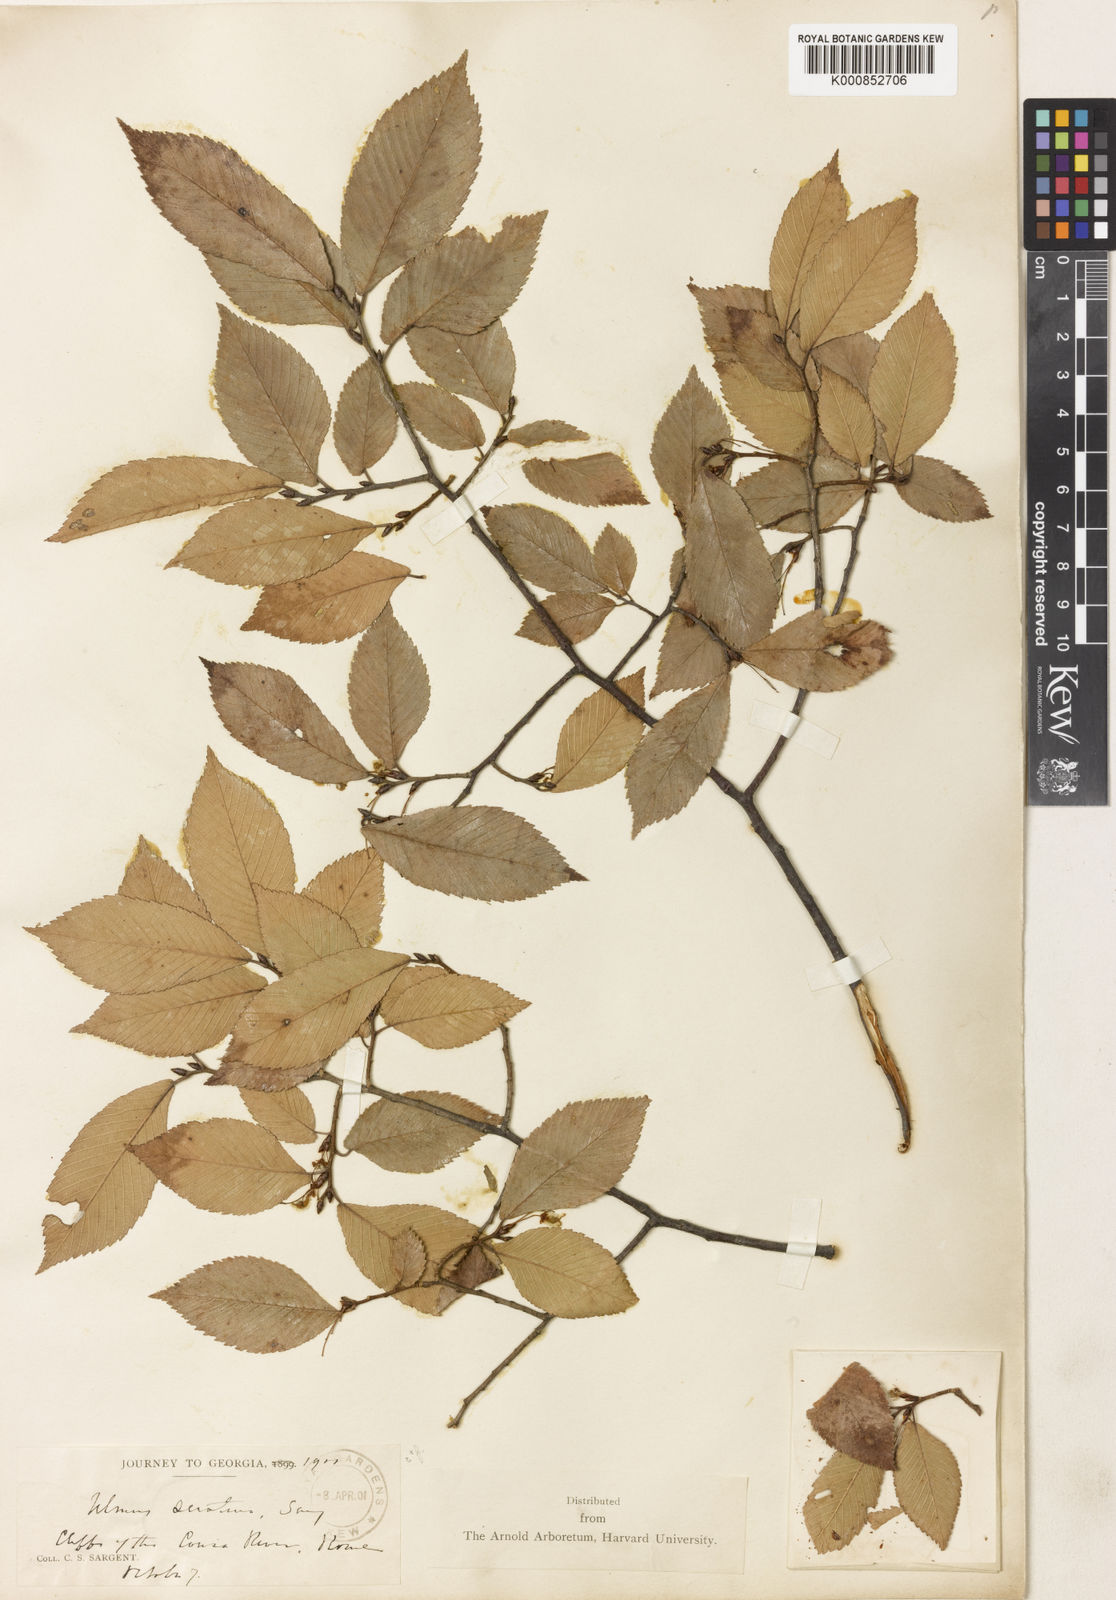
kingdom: Plantae
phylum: Tracheophyta
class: Magnoliopsida
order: Rosales
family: Ulmaceae
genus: Ulmus
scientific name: Ulmus serotina
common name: September elm
